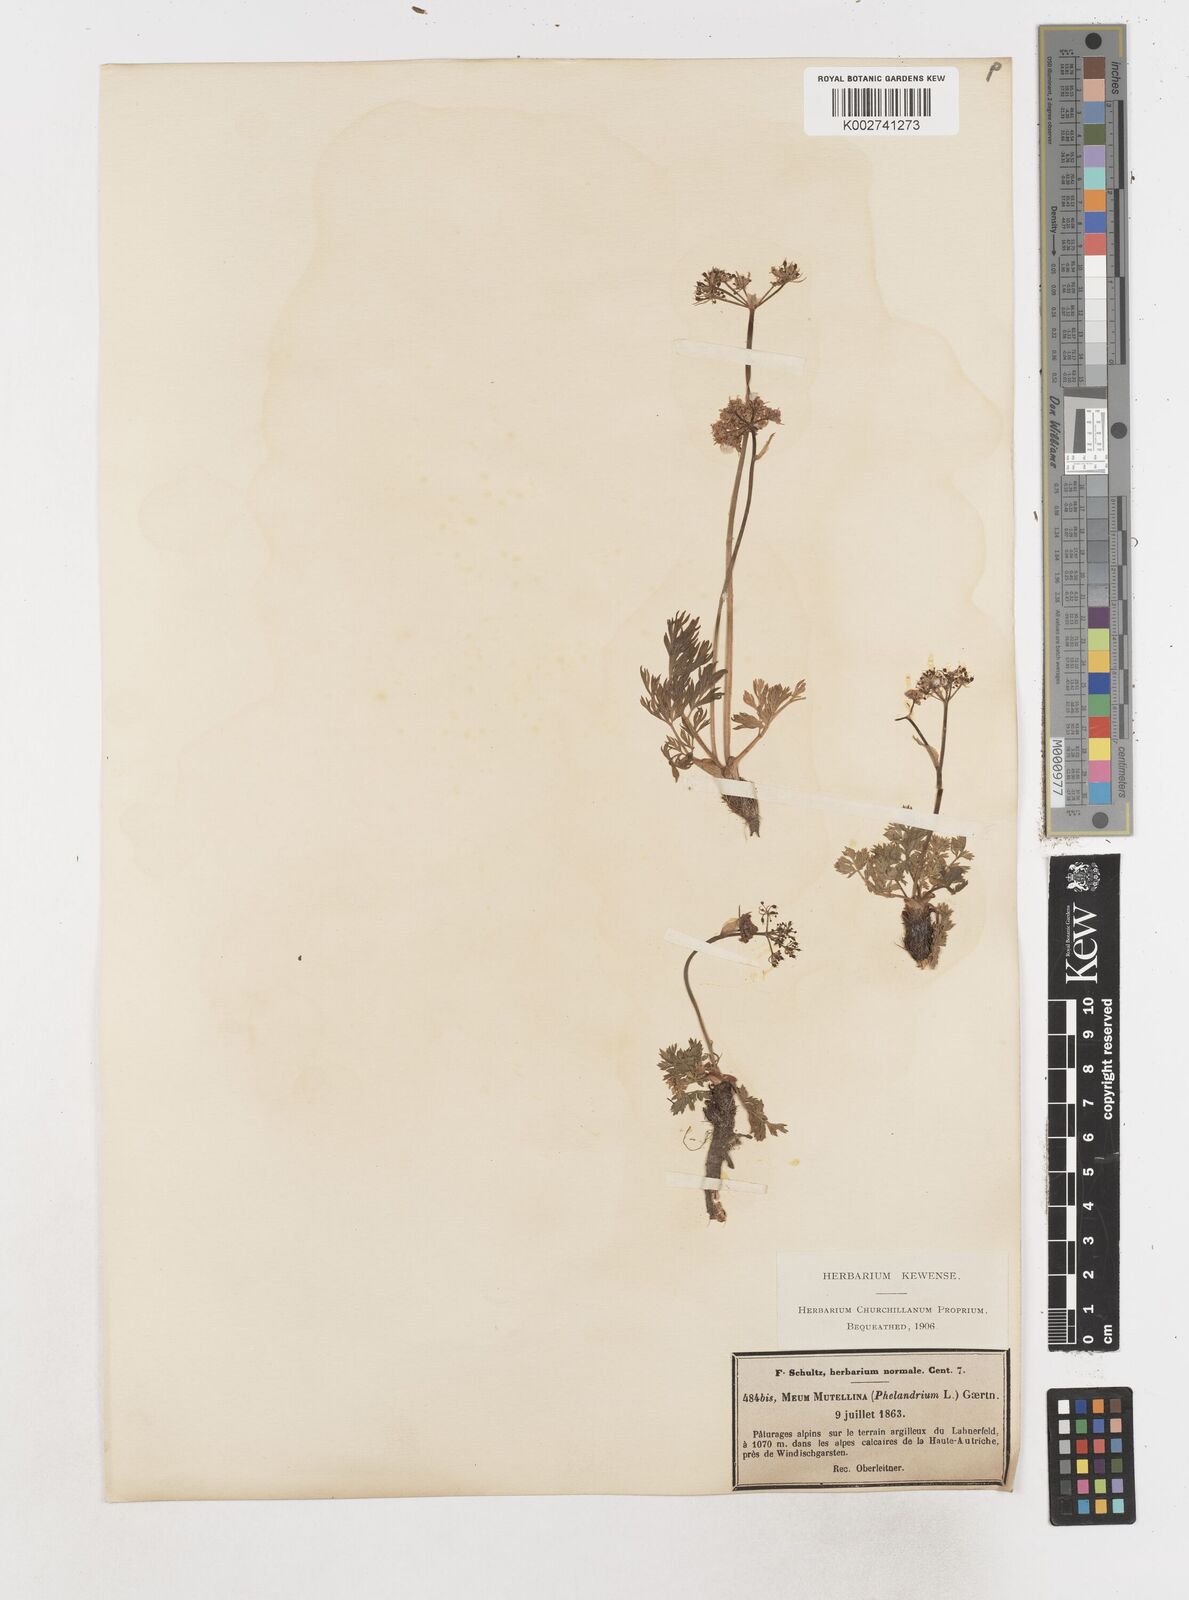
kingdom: Plantae
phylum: Tracheophyta
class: Magnoliopsida
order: Apiales
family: Apiaceae
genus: Mutellina
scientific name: Mutellina adonidifolia
